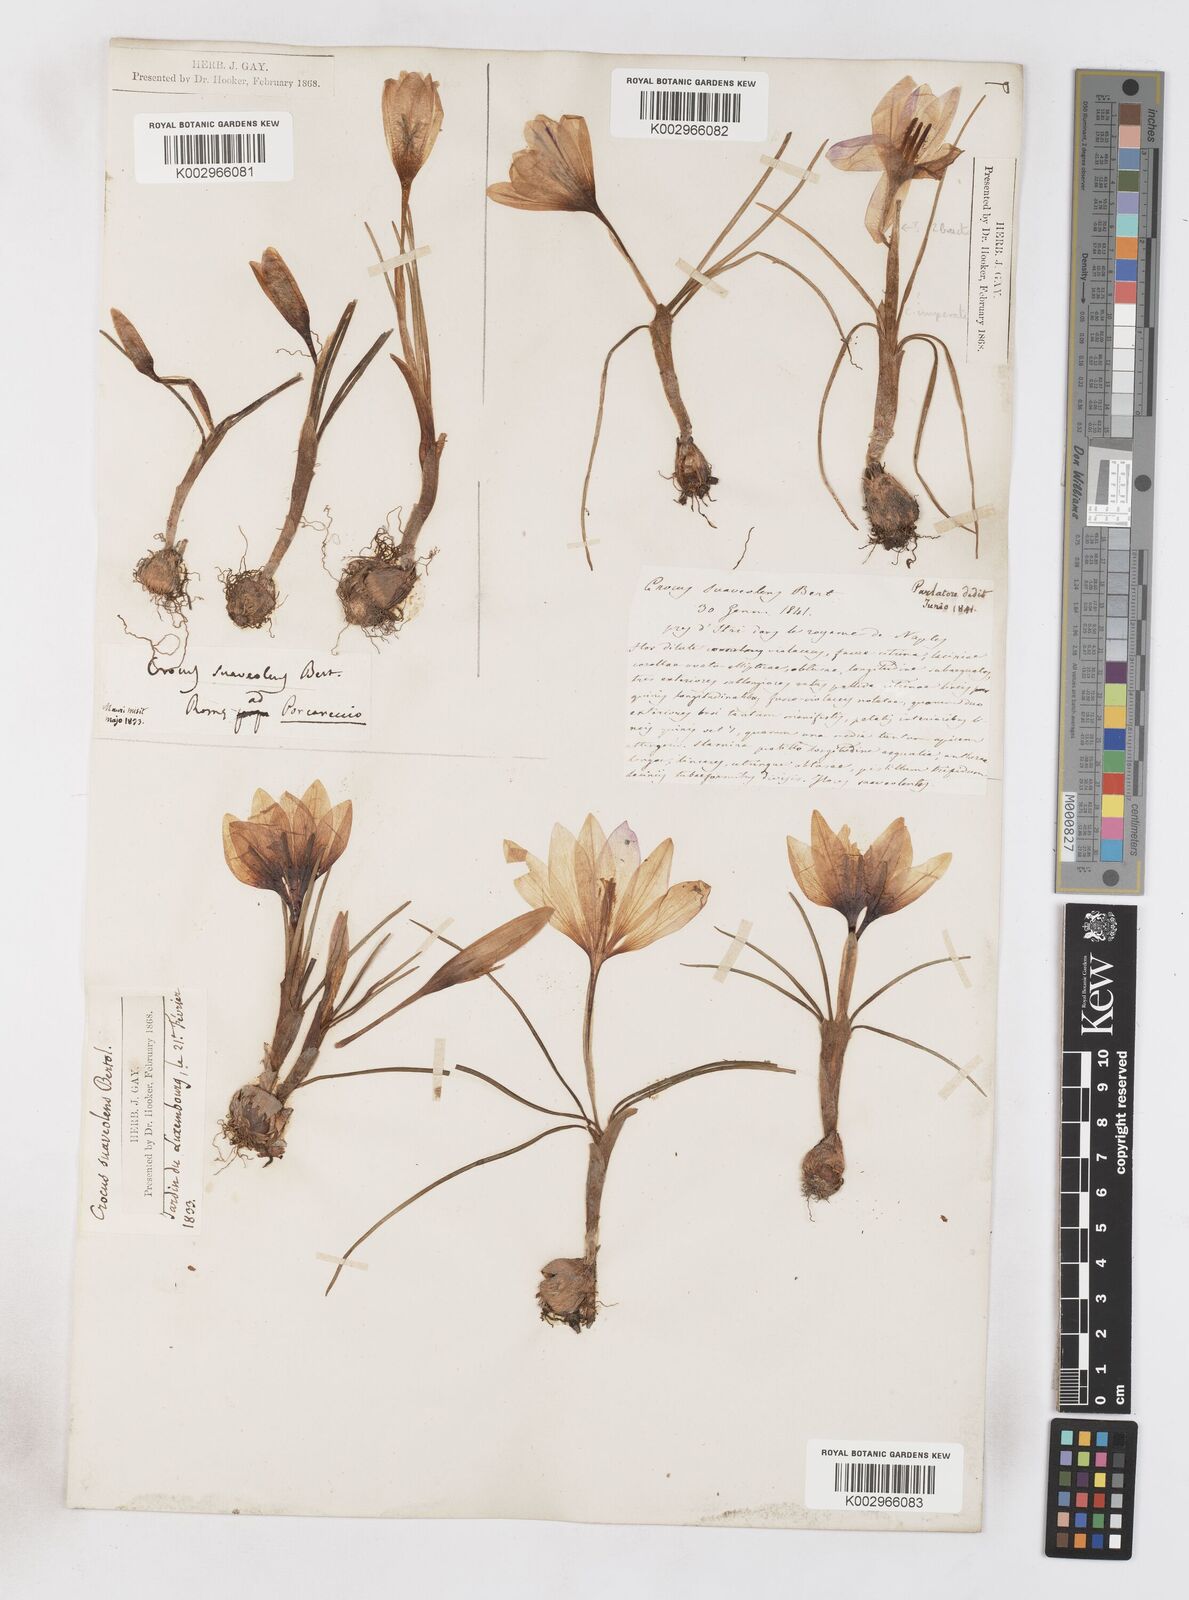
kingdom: Plantae
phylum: Tracheophyta
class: Liliopsida
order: Asparagales
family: Iridaceae
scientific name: Iridaceae
